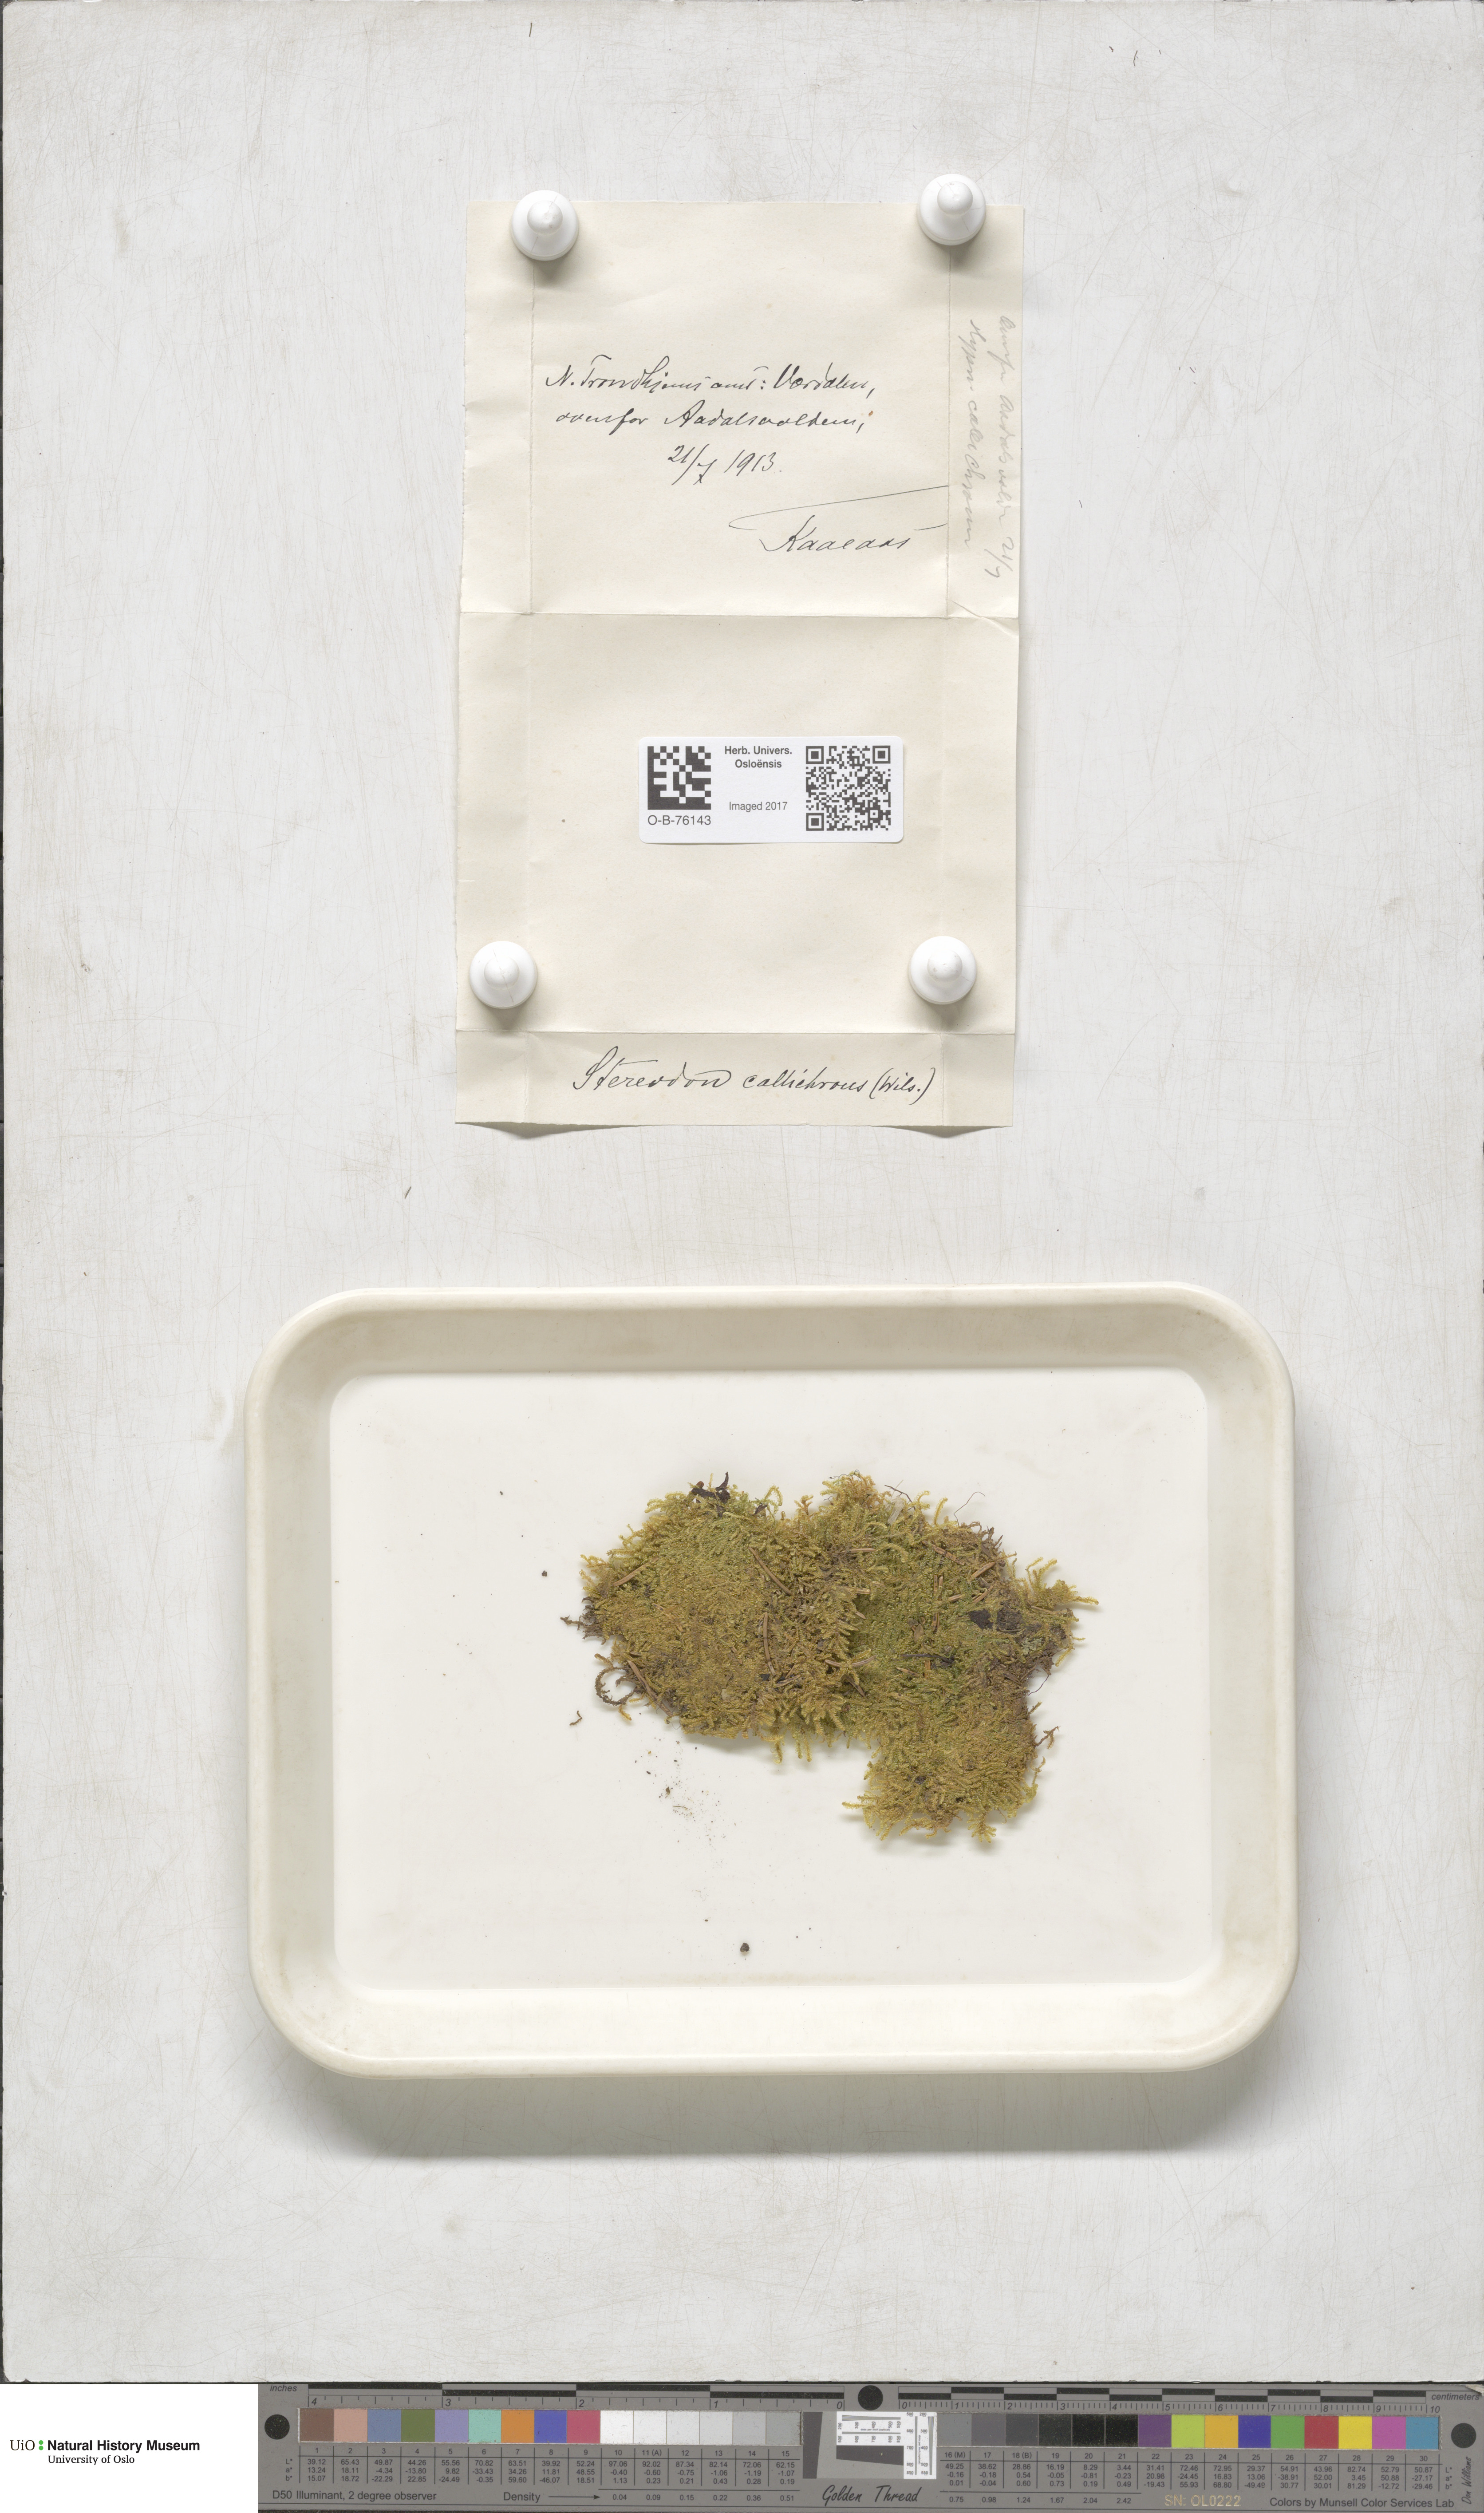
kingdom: Plantae
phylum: Bryophyta
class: Bryopsida
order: Hypnales
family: Stereodontaceae
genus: Stereodon
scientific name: Stereodon callichrous
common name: Downy plait-moss
